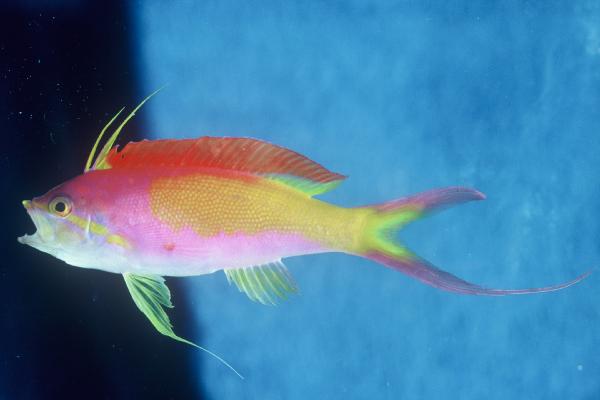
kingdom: Animalia
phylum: Chordata
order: Perciformes
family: Serranidae
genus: Nemanthias
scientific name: Nemanthias carberryi
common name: Threadfin anthias
